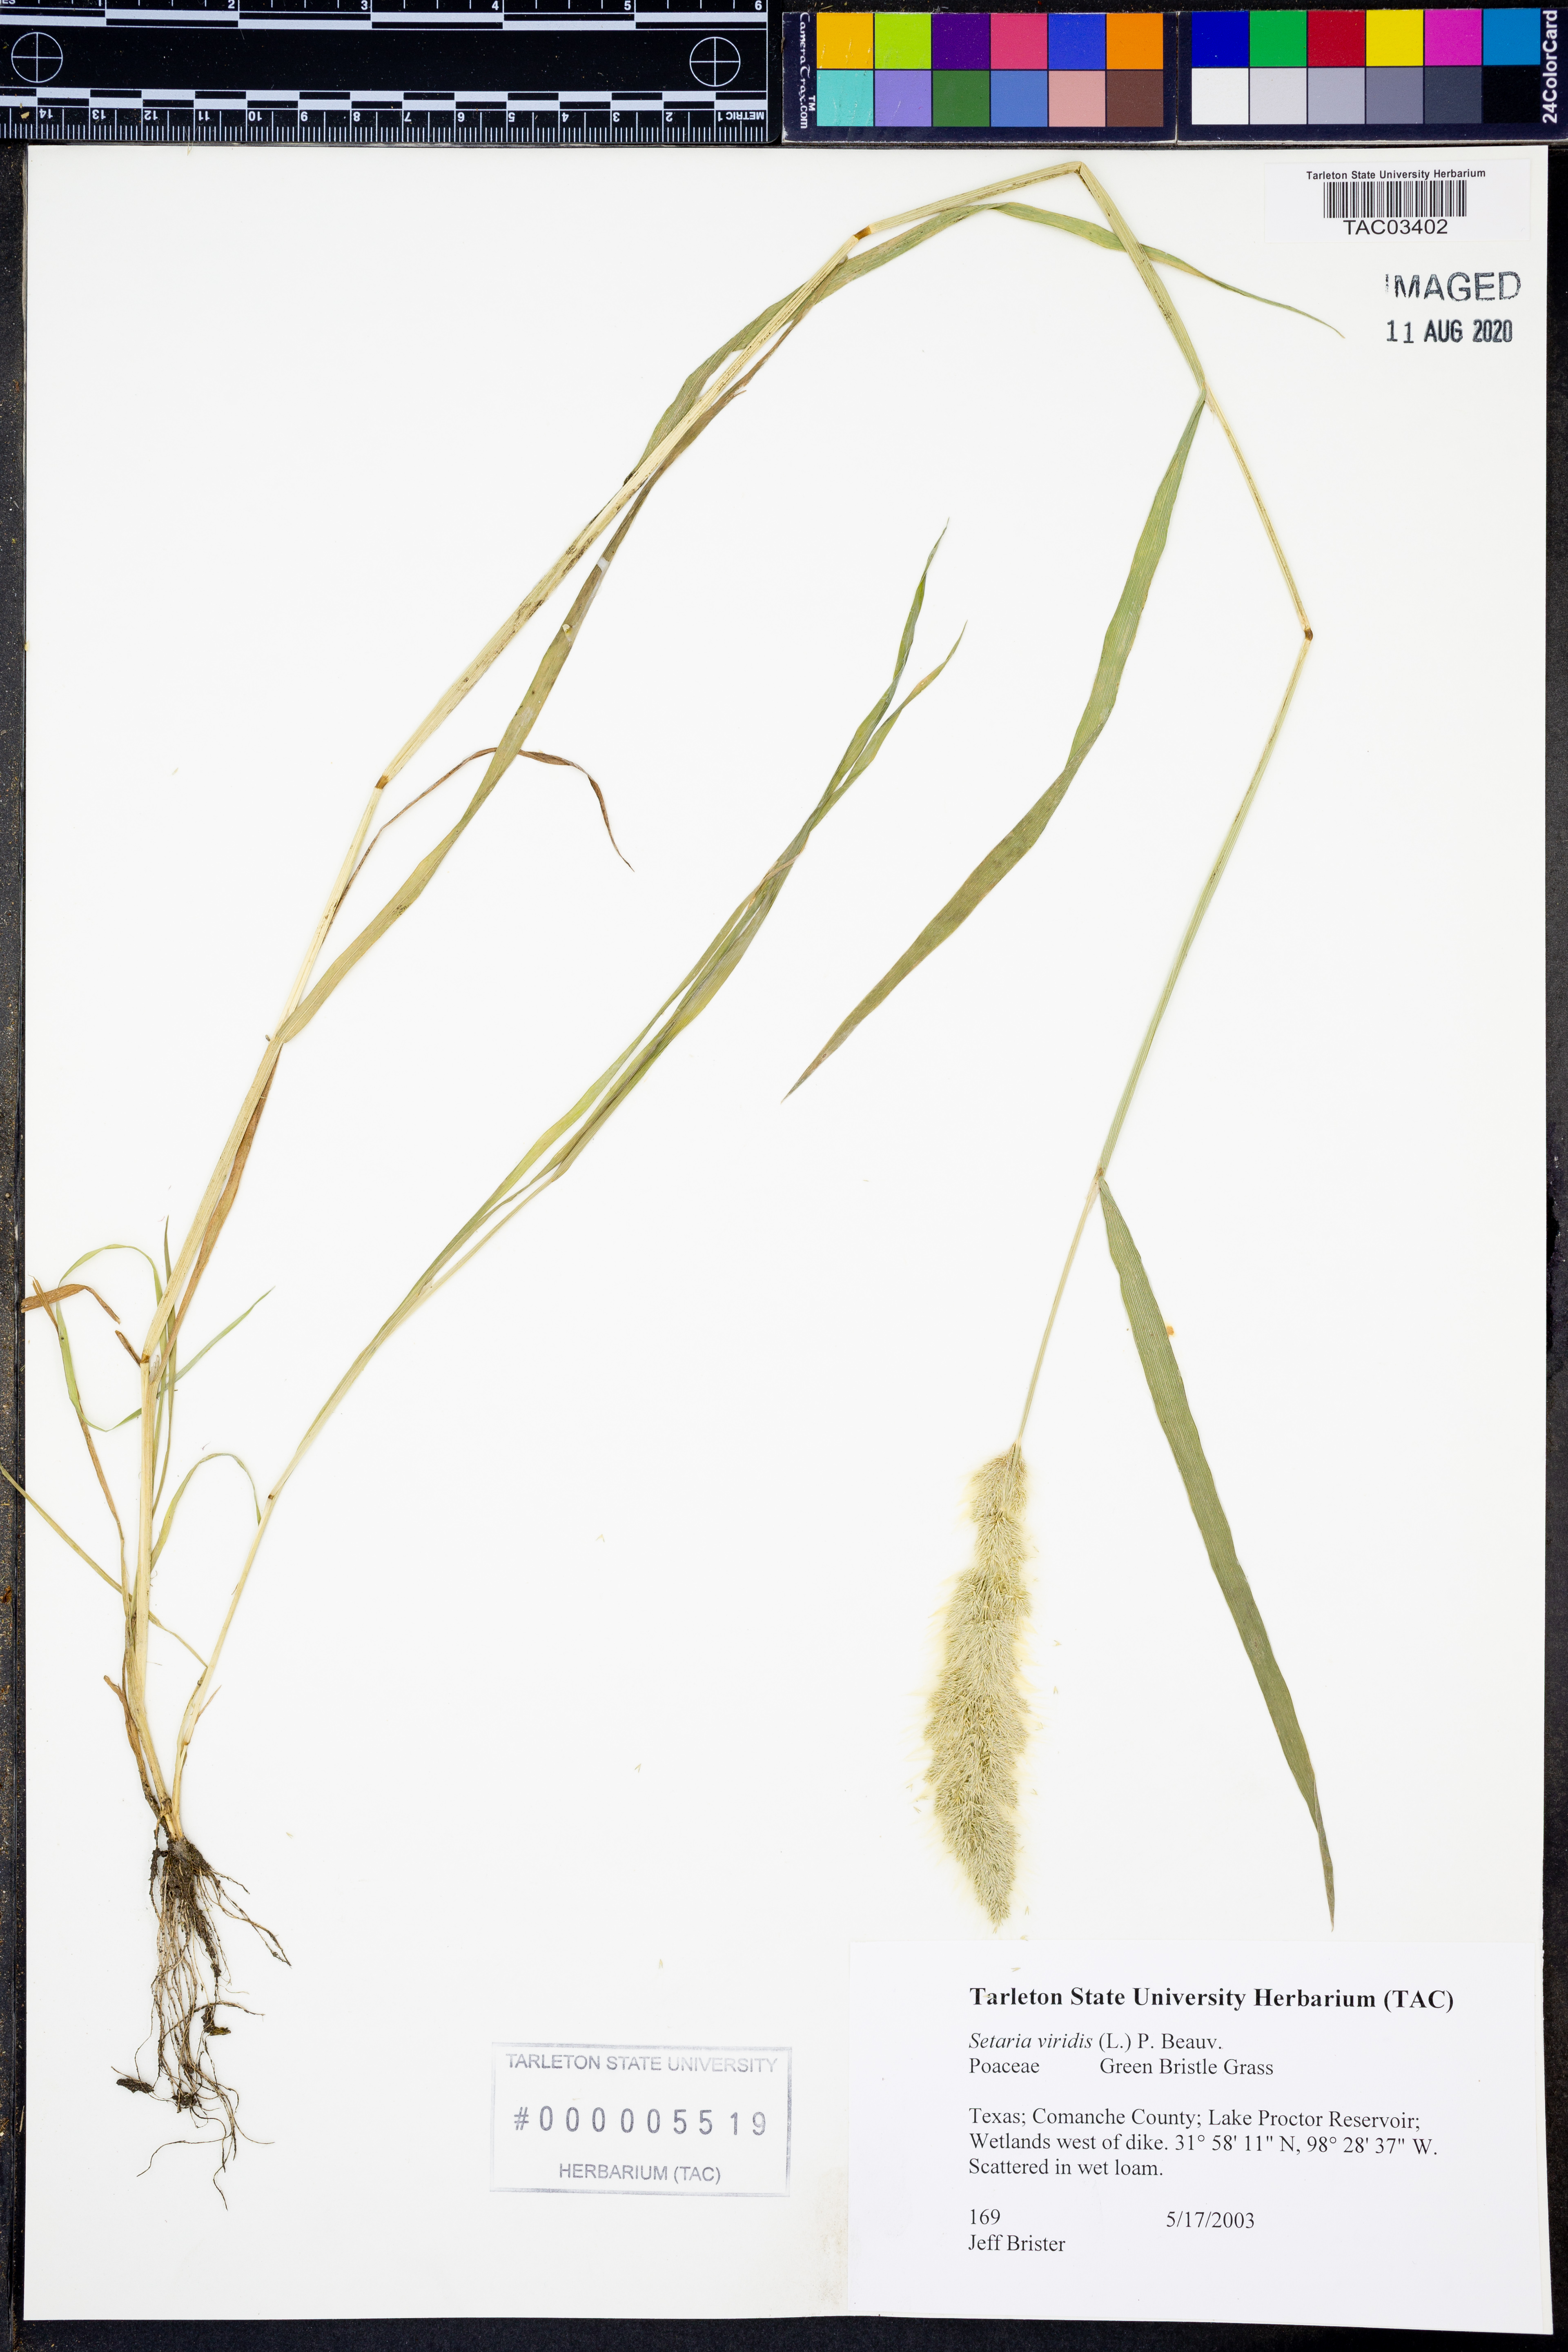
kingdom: Plantae
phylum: Tracheophyta
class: Liliopsida
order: Poales
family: Poaceae
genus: Setaria
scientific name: Setaria viridis
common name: Green bristlegrass
